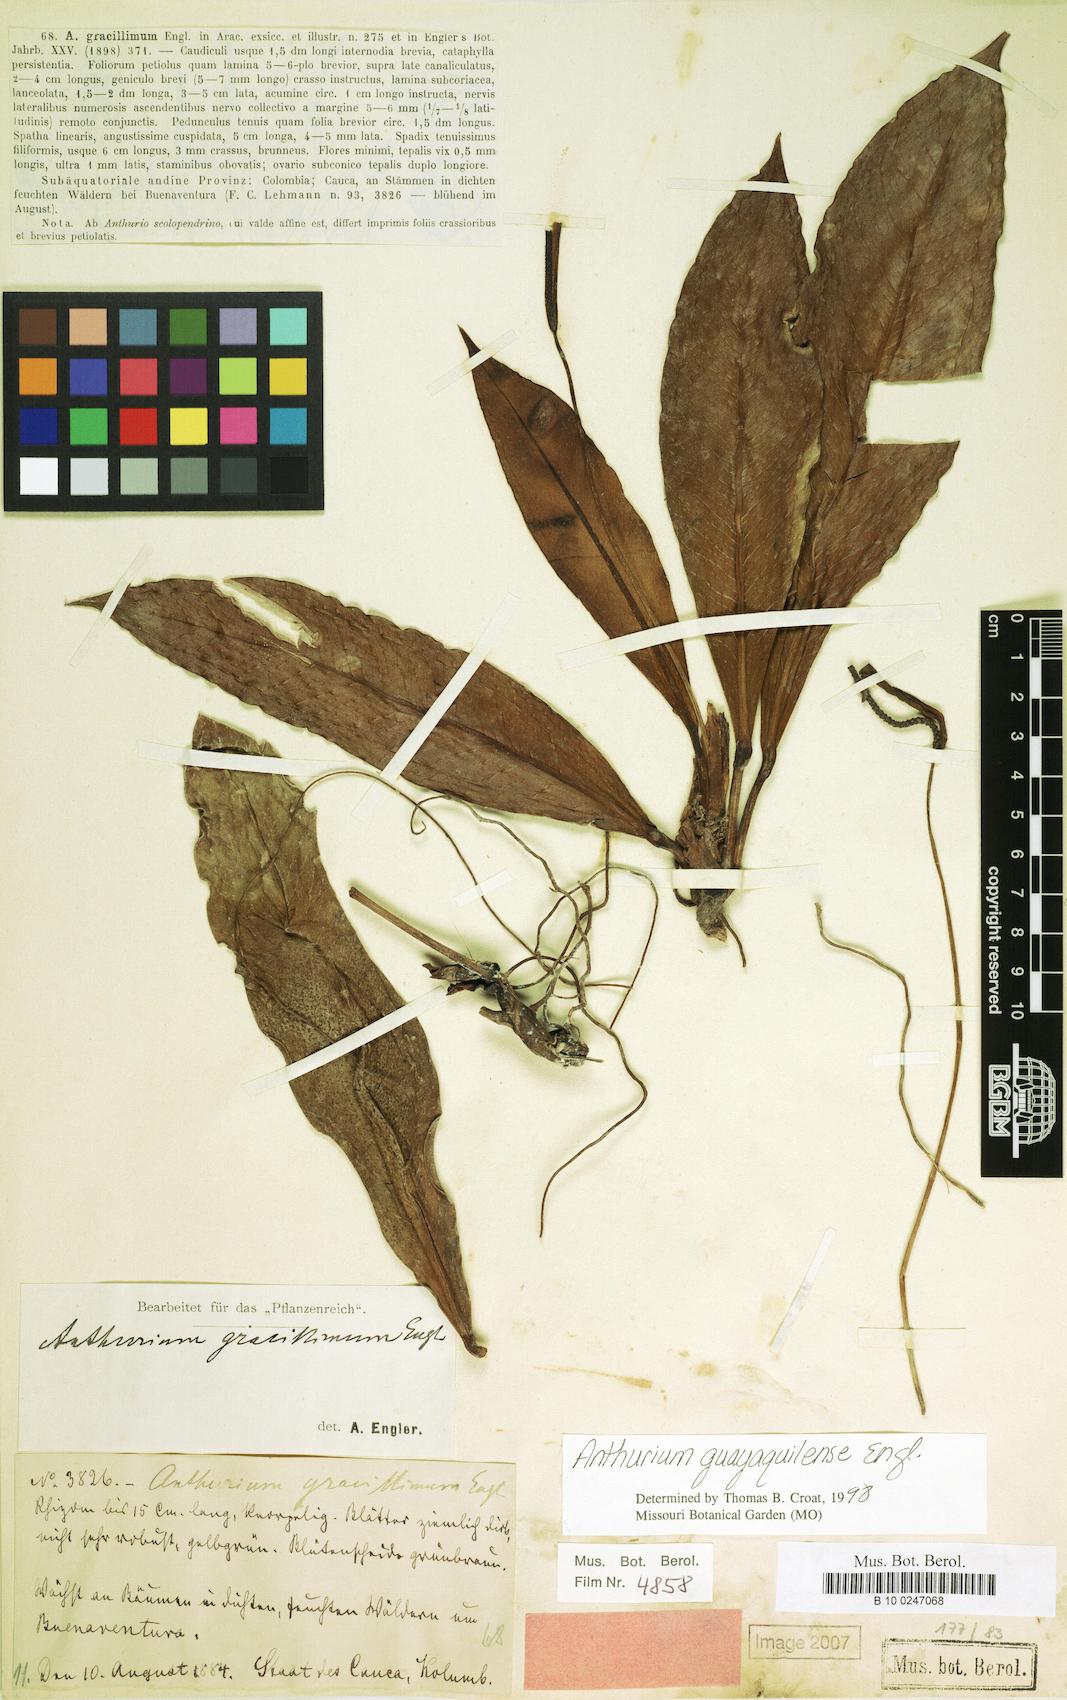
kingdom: Plantae
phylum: Tracheophyta
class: Liliopsida
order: Alismatales
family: Araceae
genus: Anthurium
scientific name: Anthurium guayaquilense
